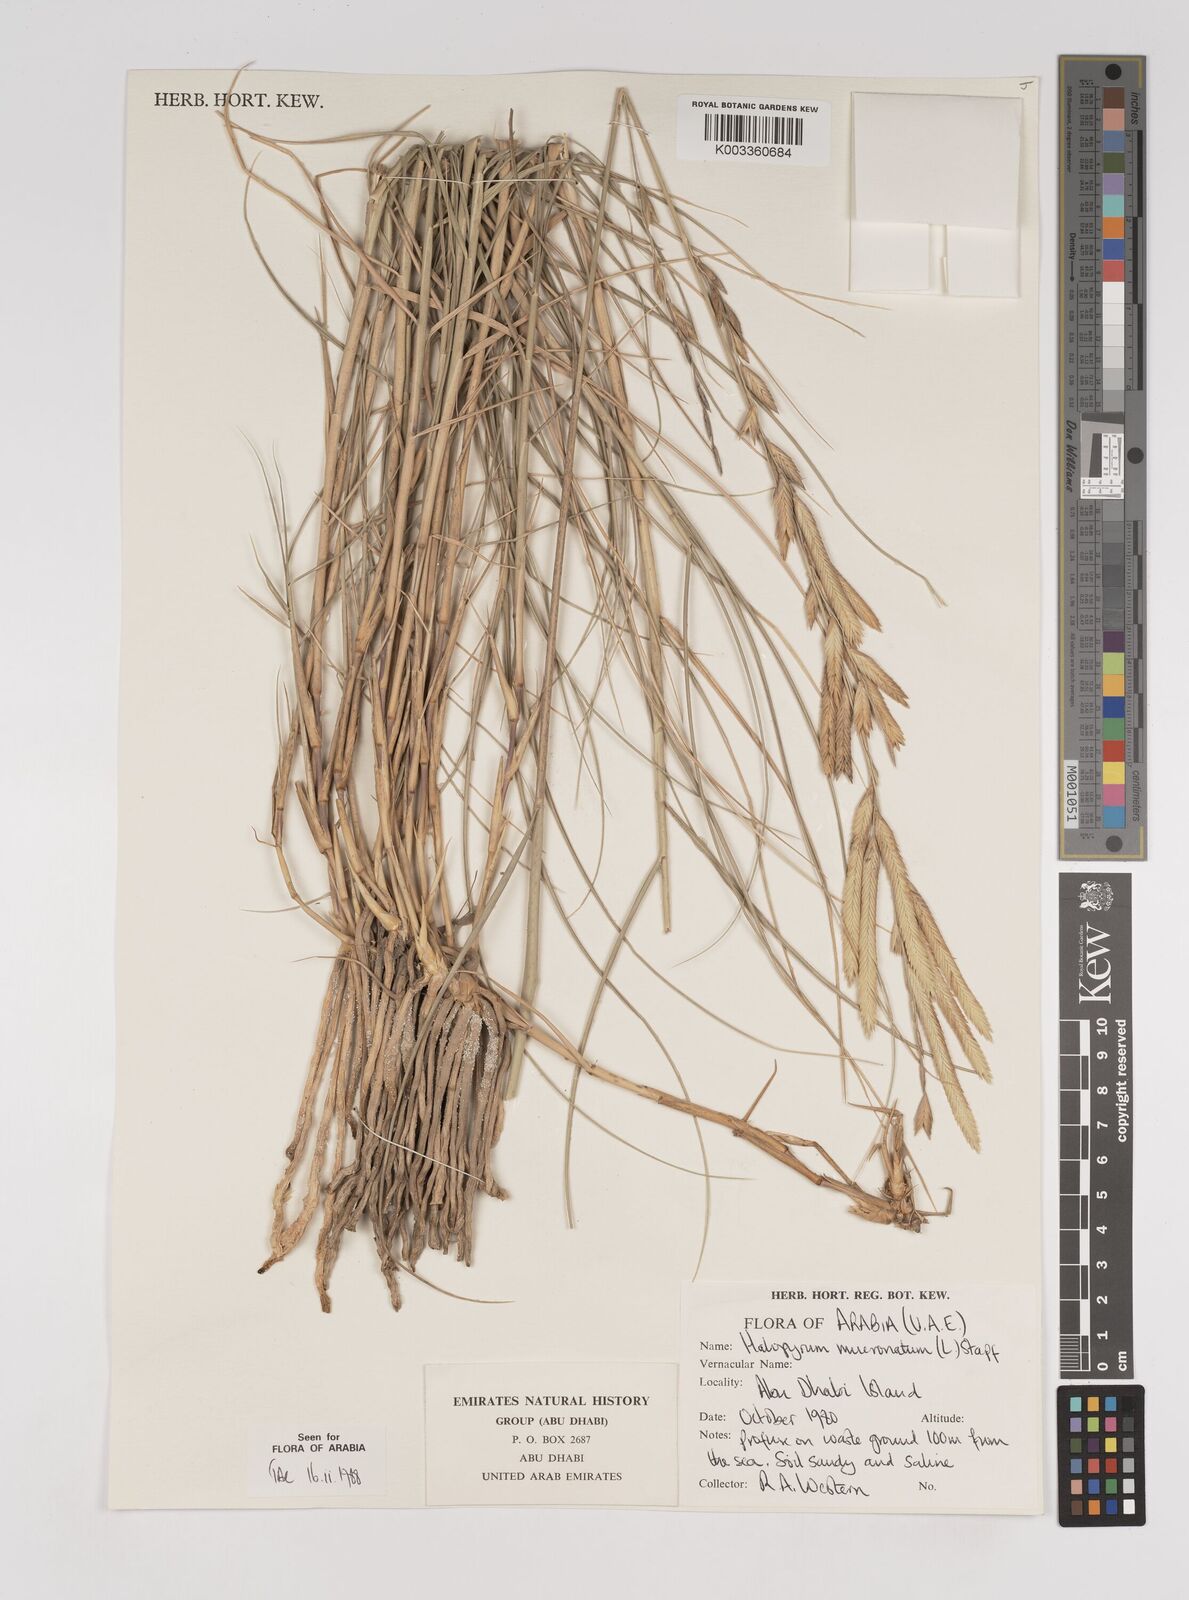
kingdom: Plantae
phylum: Tracheophyta
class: Liliopsida
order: Poales
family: Poaceae
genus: Halopyrum
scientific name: Halopyrum mucronatum
